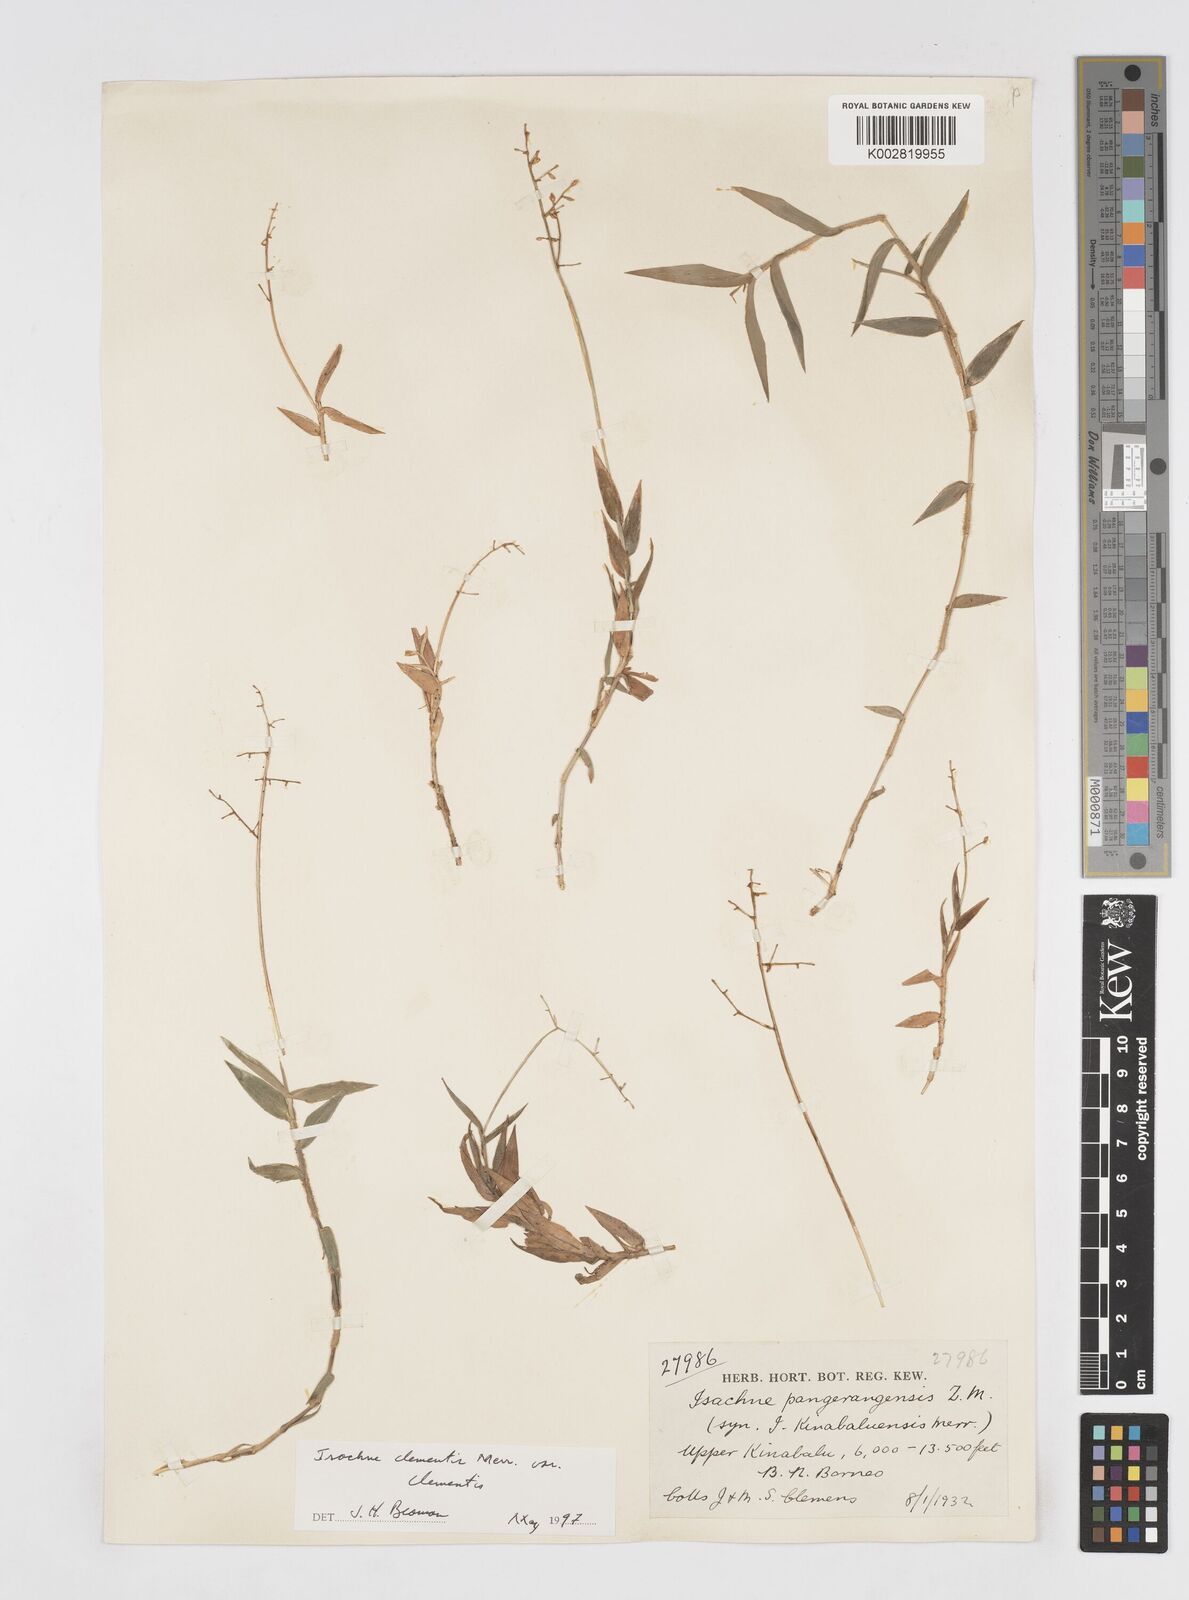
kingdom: Plantae
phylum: Tracheophyta
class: Liliopsida
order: Poales
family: Poaceae
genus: Isachne
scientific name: Isachne clementis
